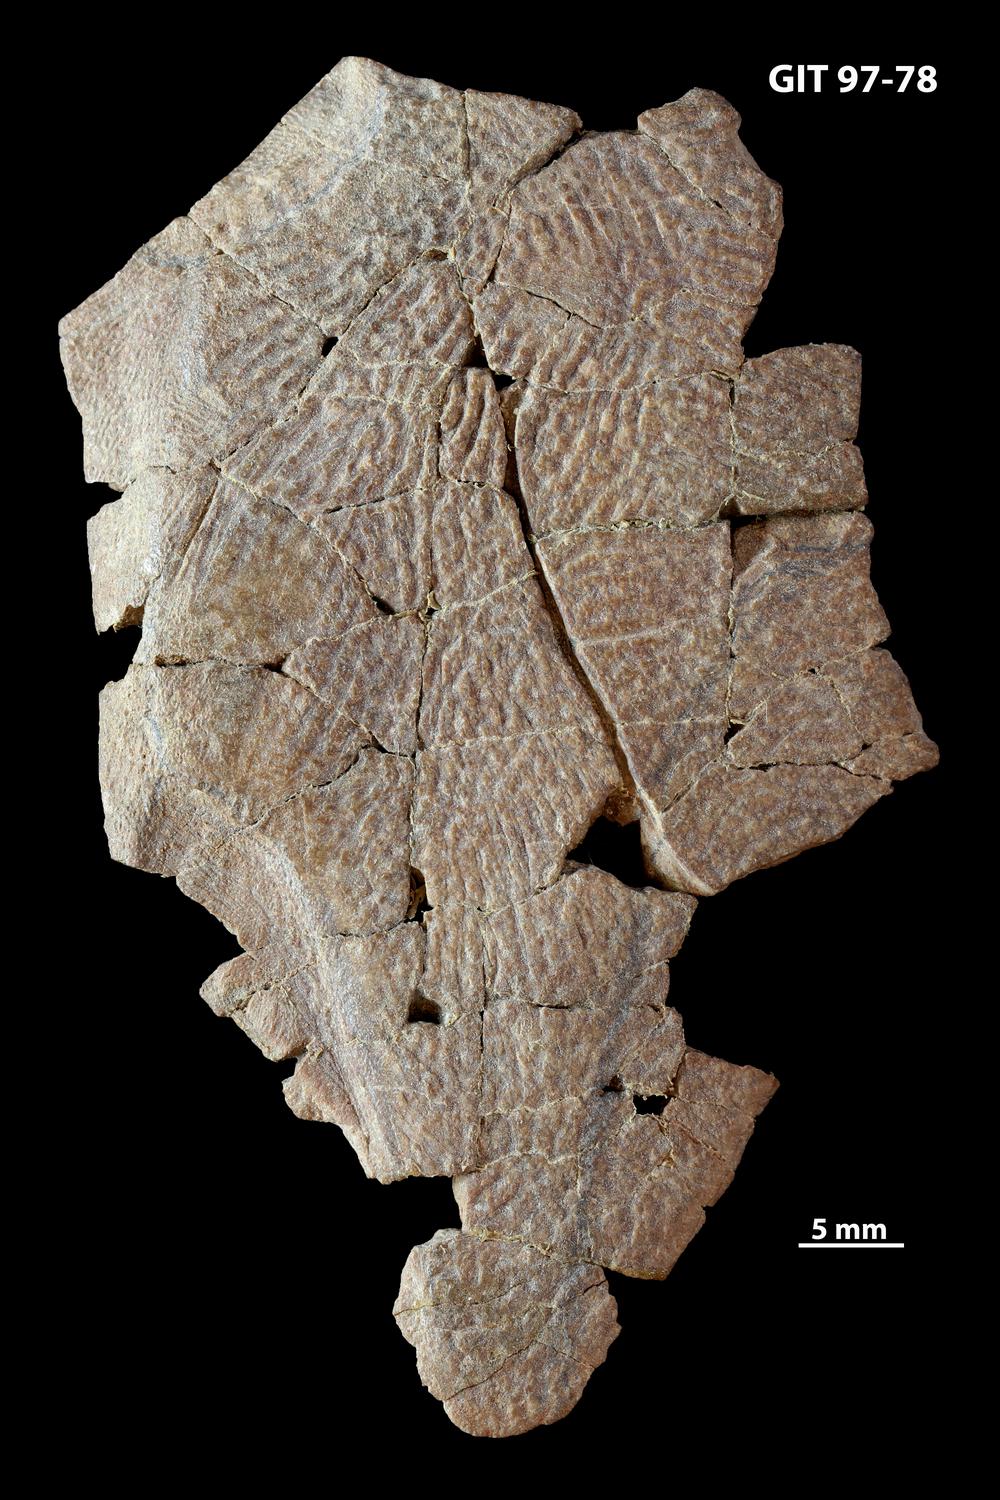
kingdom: Animalia
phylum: Chordata
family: Holonematidae
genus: Holonema
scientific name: Holonema
